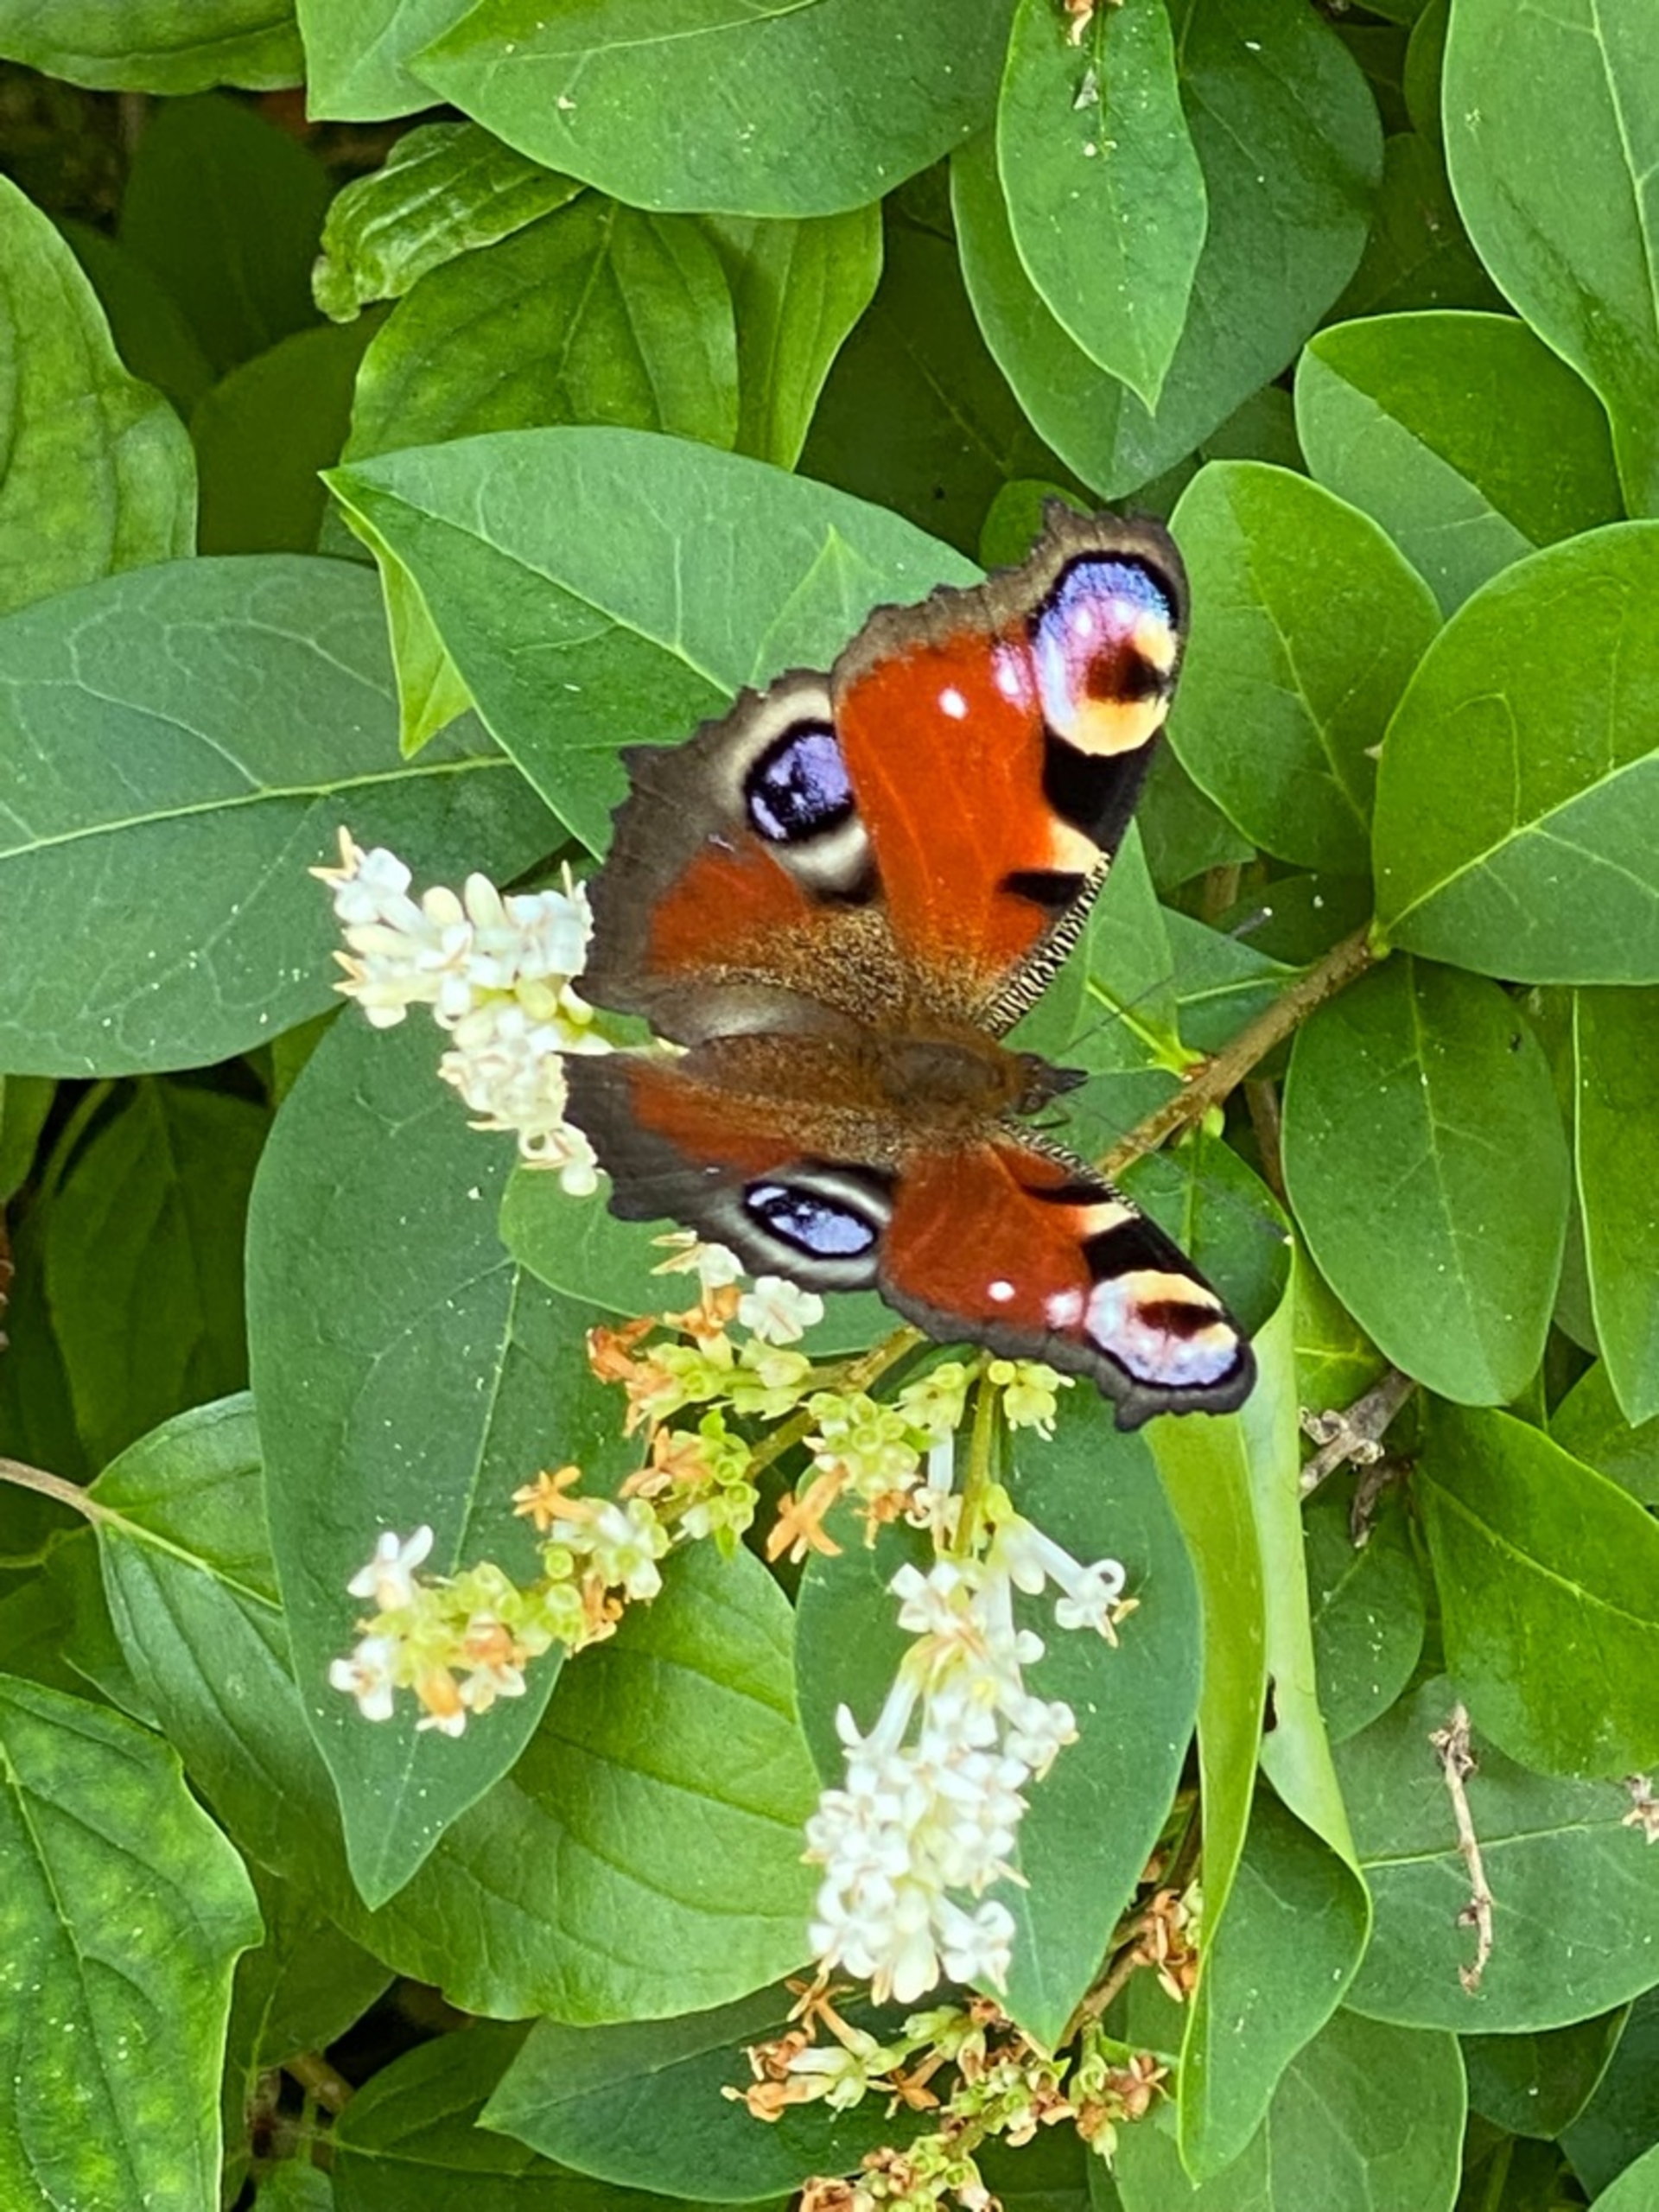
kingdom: Animalia
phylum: Arthropoda
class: Insecta
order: Lepidoptera
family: Nymphalidae
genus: Aglais
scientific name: Aglais io
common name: Dagpåfugleøje
